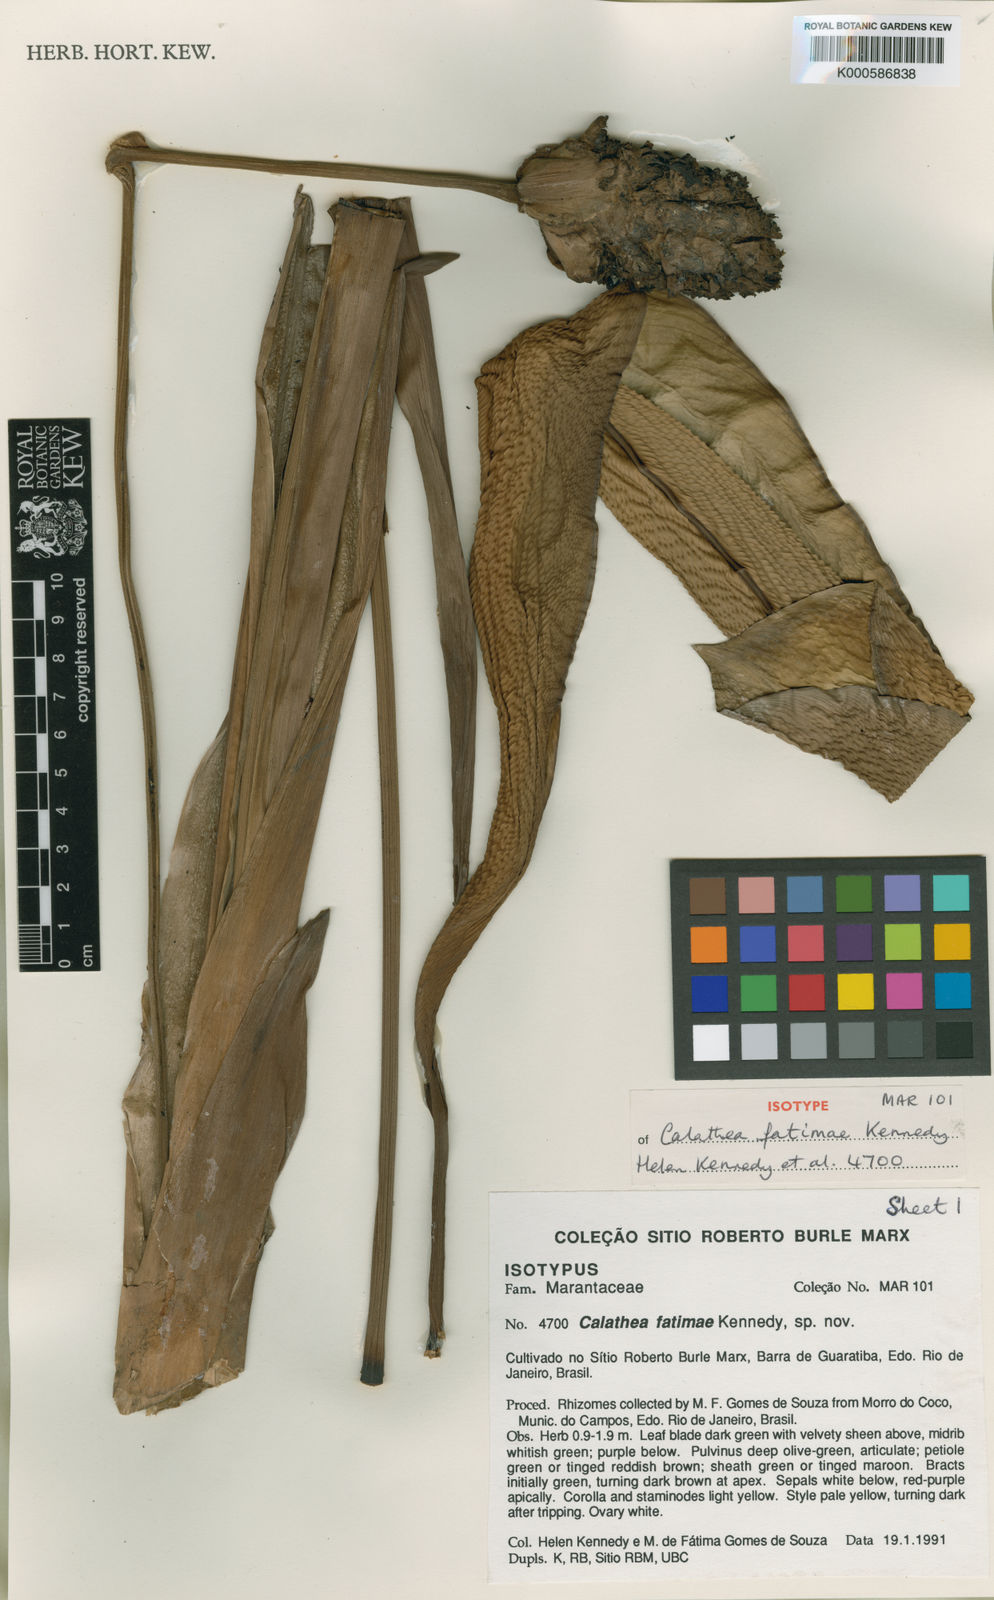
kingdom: Plantae
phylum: Tracheophyta
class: Liliopsida
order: Zingiberales
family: Marantaceae
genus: Goeppertia
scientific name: Goeppertia fatimae
